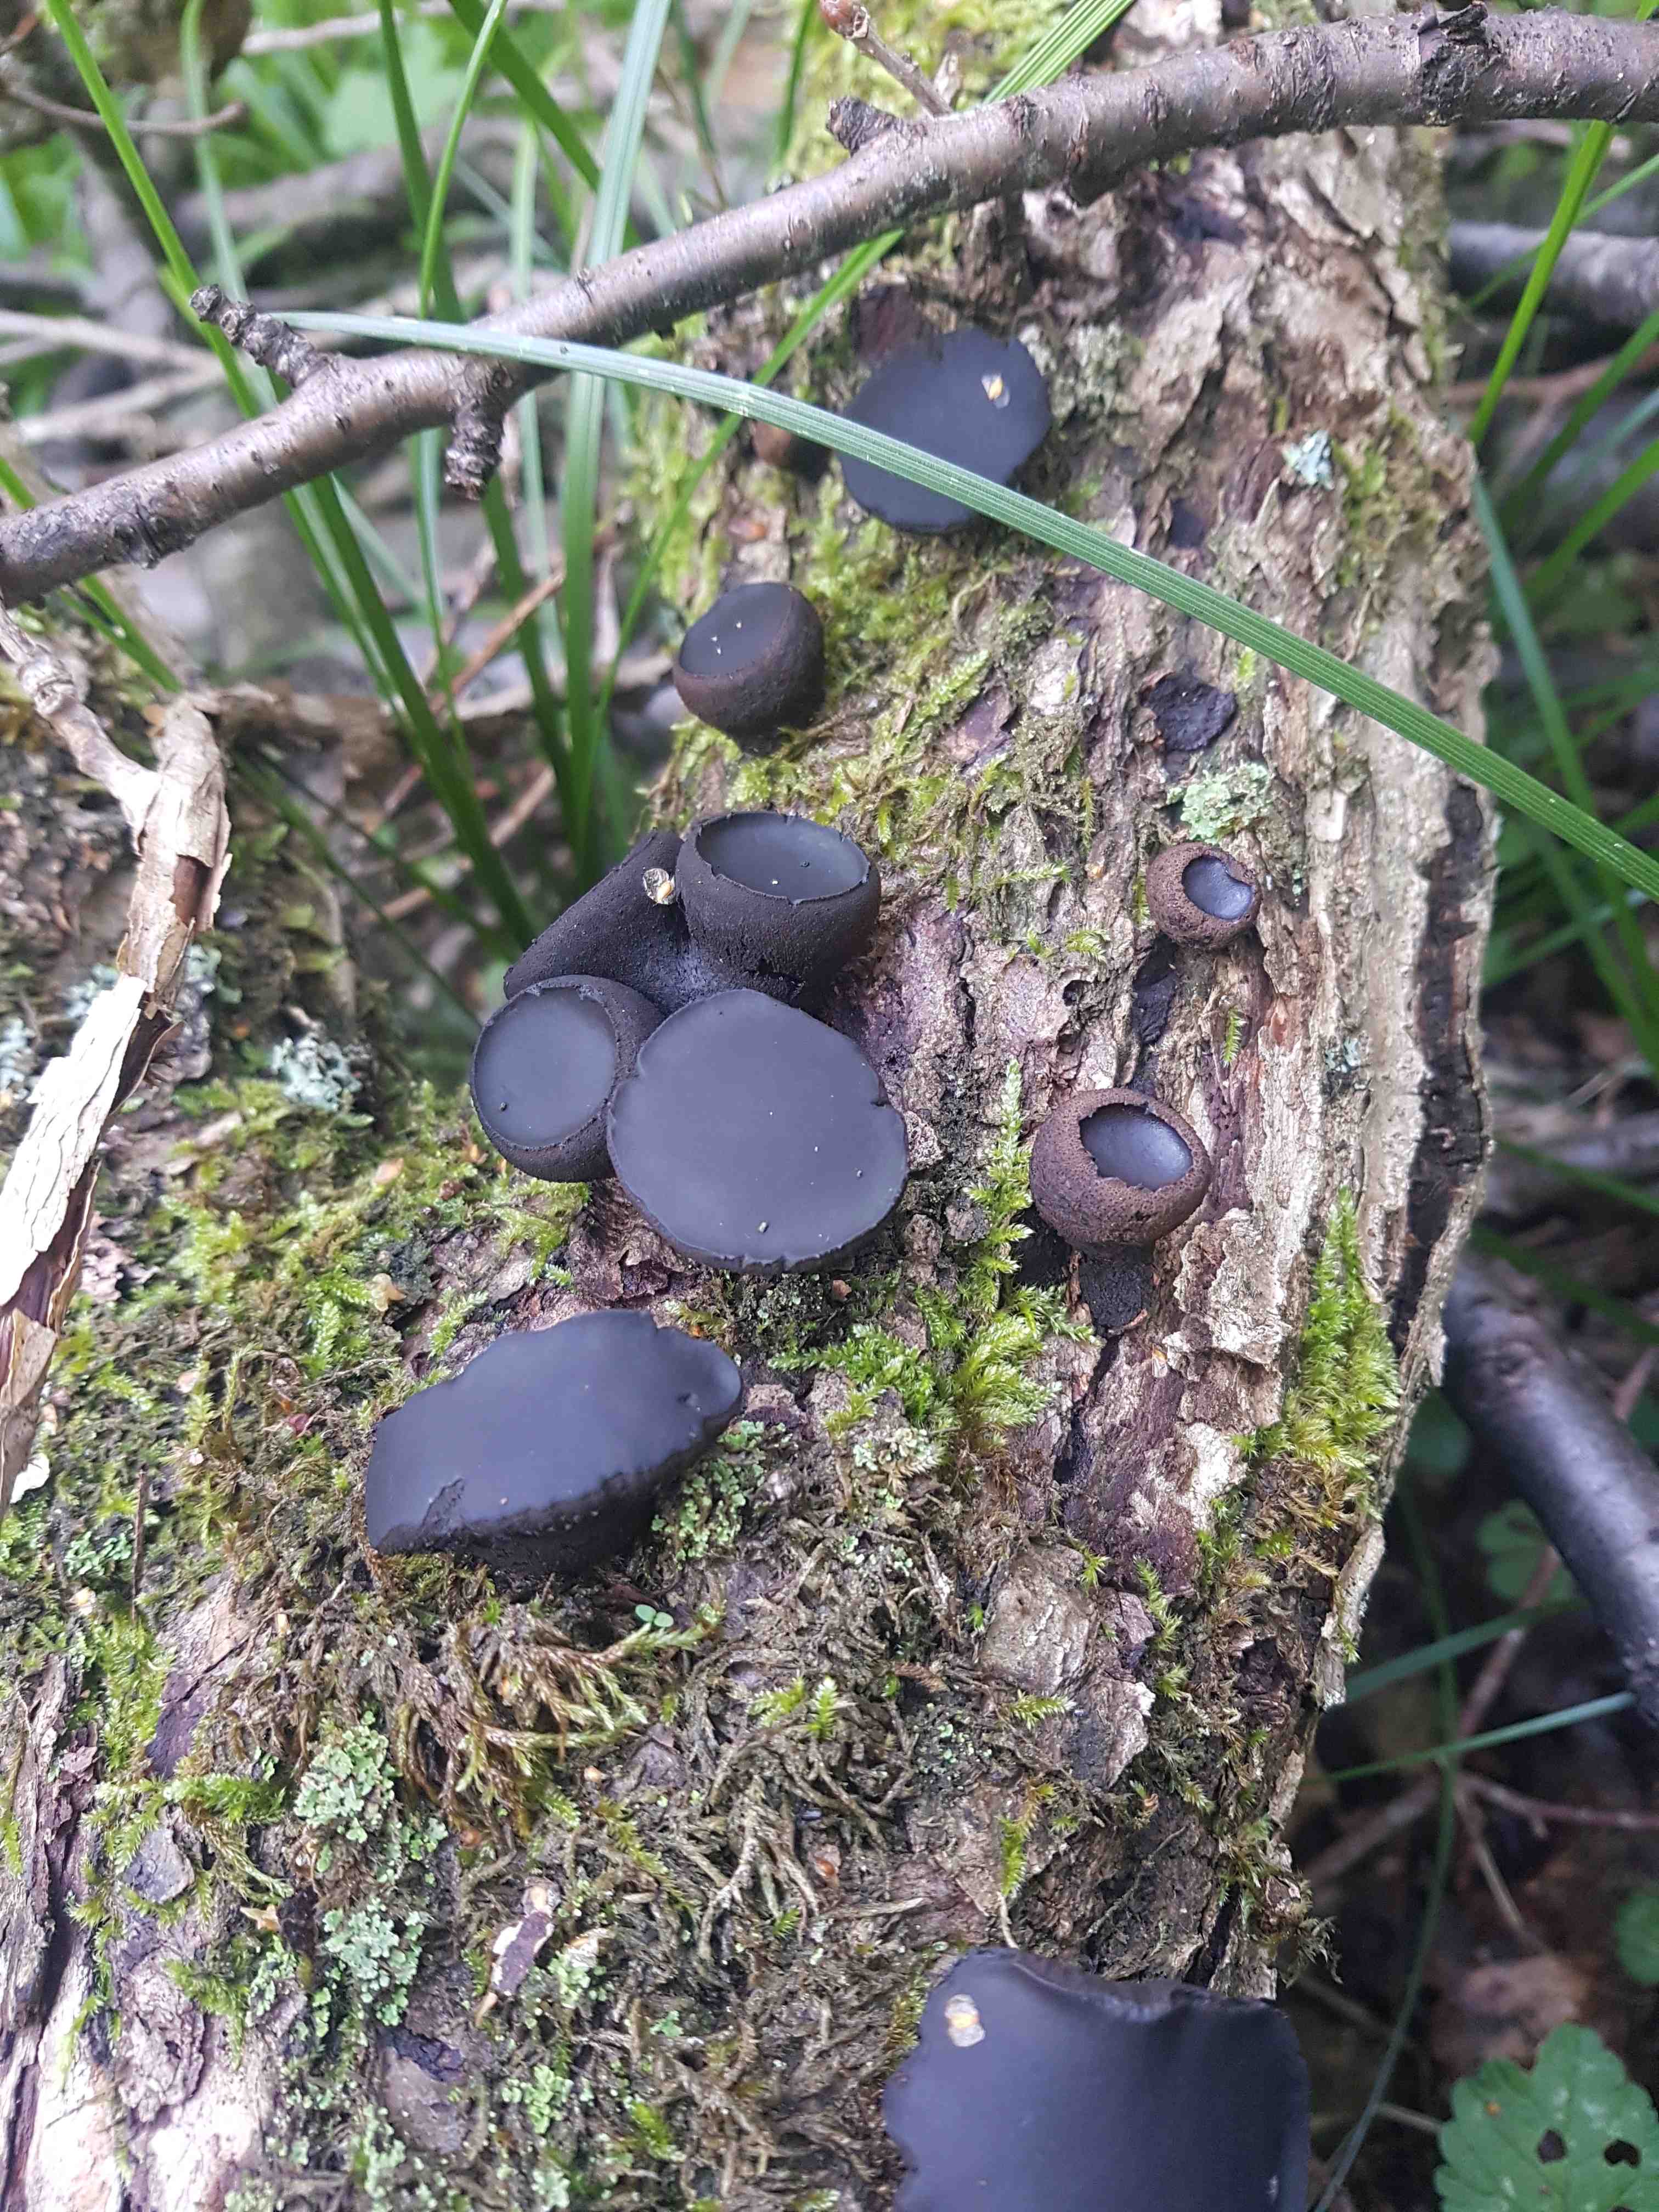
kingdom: Fungi
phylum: Ascomycota
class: Leotiomycetes
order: Phacidiales
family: Phacidiaceae
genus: Bulgaria
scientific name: Bulgaria inquinans
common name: afsmittende topsvamp
